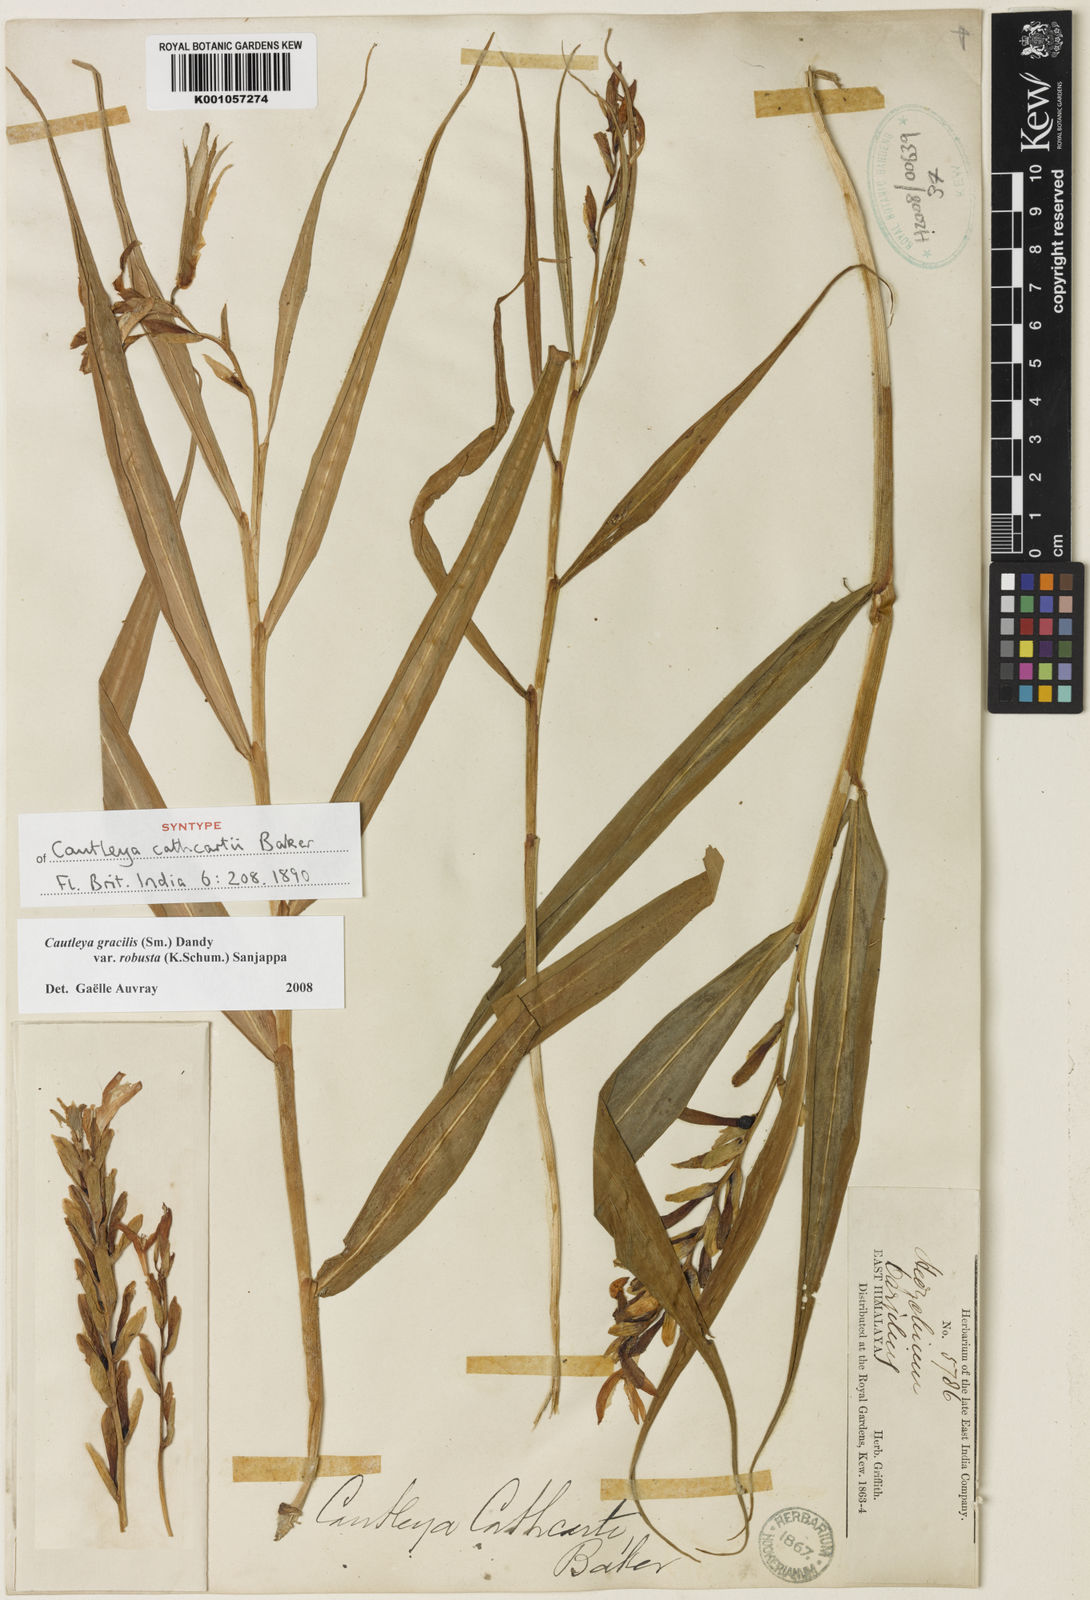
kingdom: Plantae
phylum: Tracheophyta
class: Liliopsida
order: Zingiberales
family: Zingiberaceae
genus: Cautleya
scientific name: Cautleya gracilis
